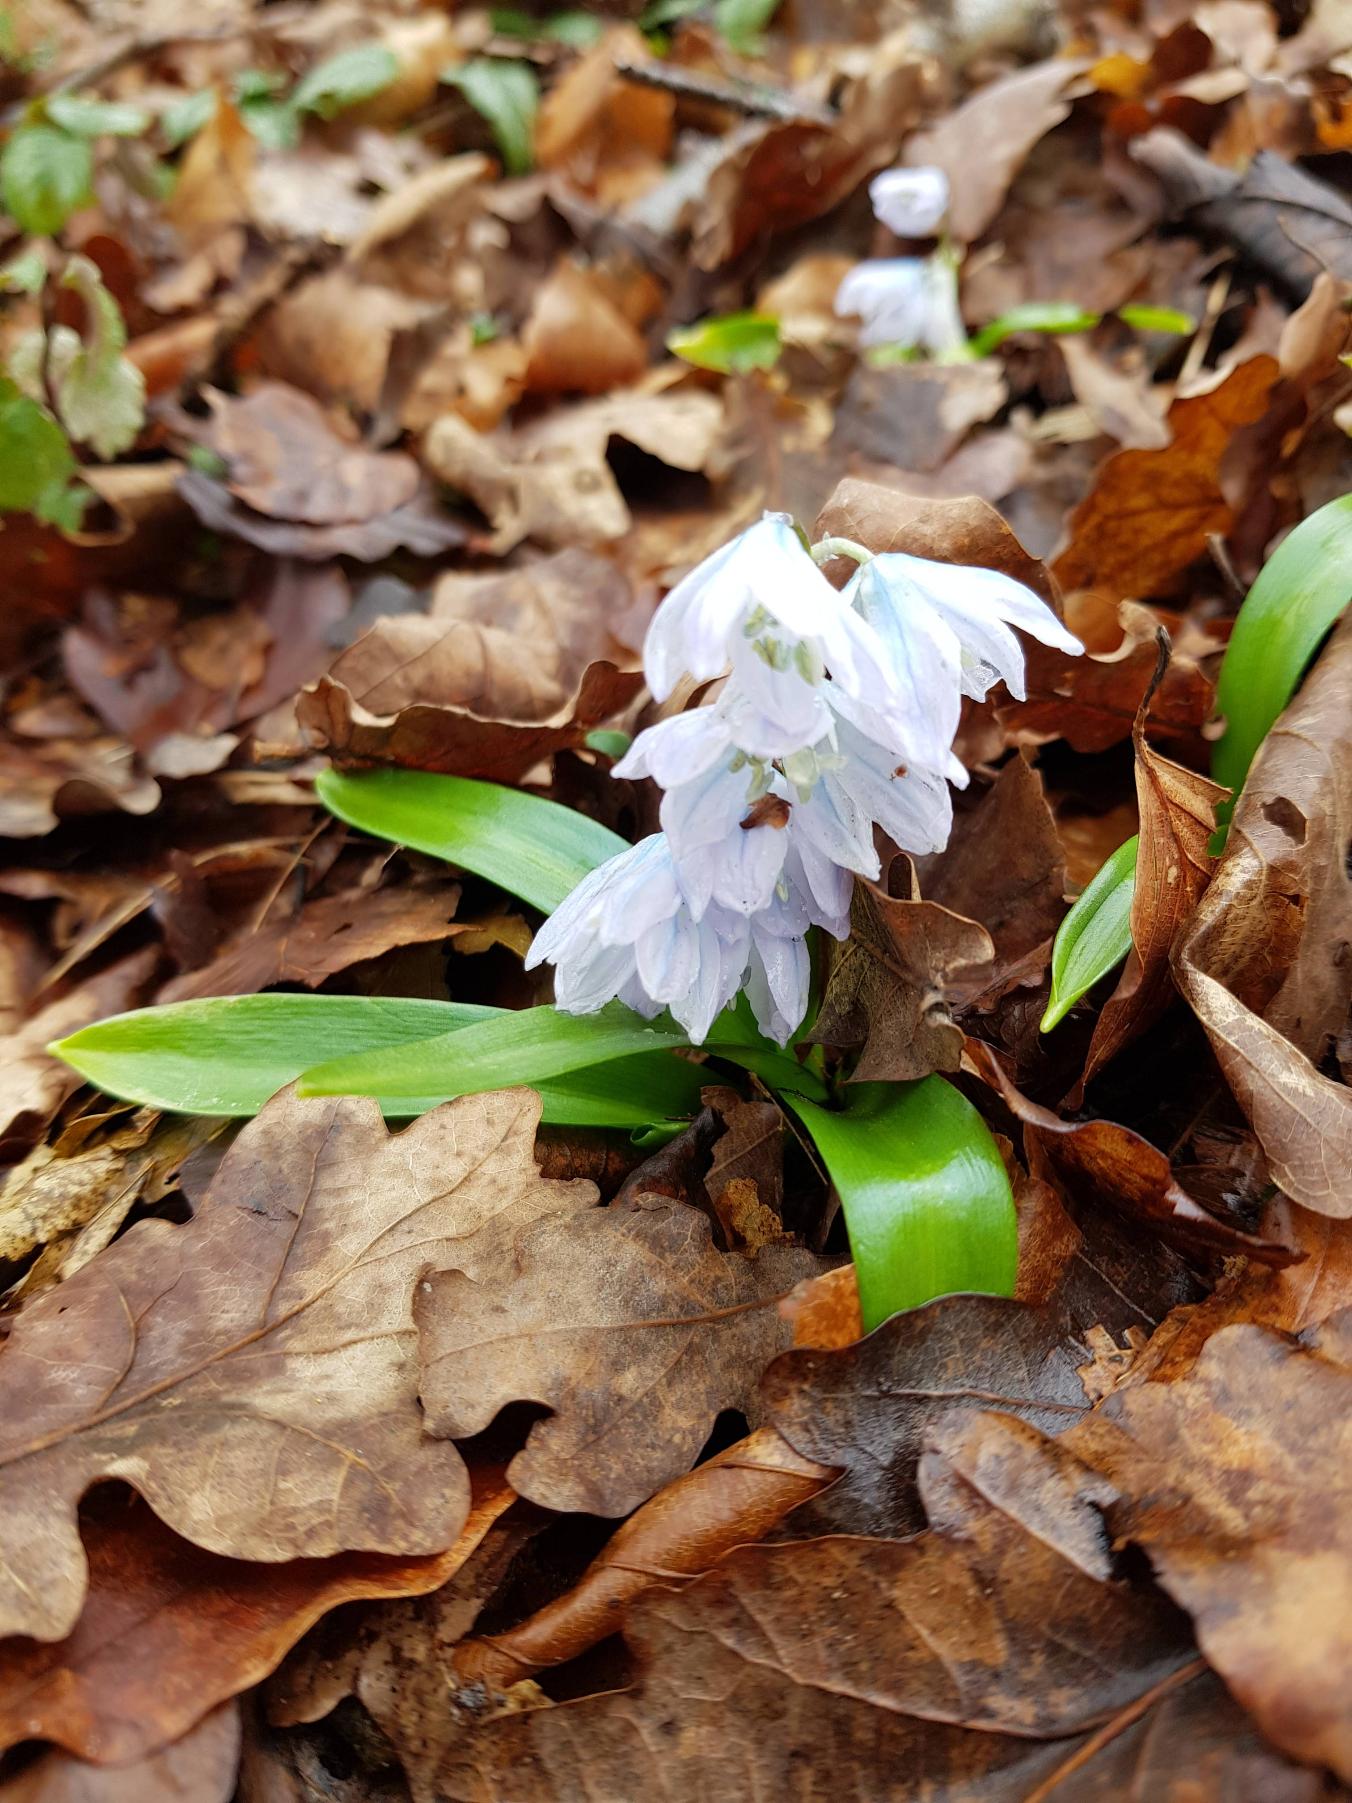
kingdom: Plantae
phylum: Tracheophyta
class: Liliopsida
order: Asparagales
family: Asparagaceae
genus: Scilla
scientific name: Scilla mischtschenkoana
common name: Persisk skilla
